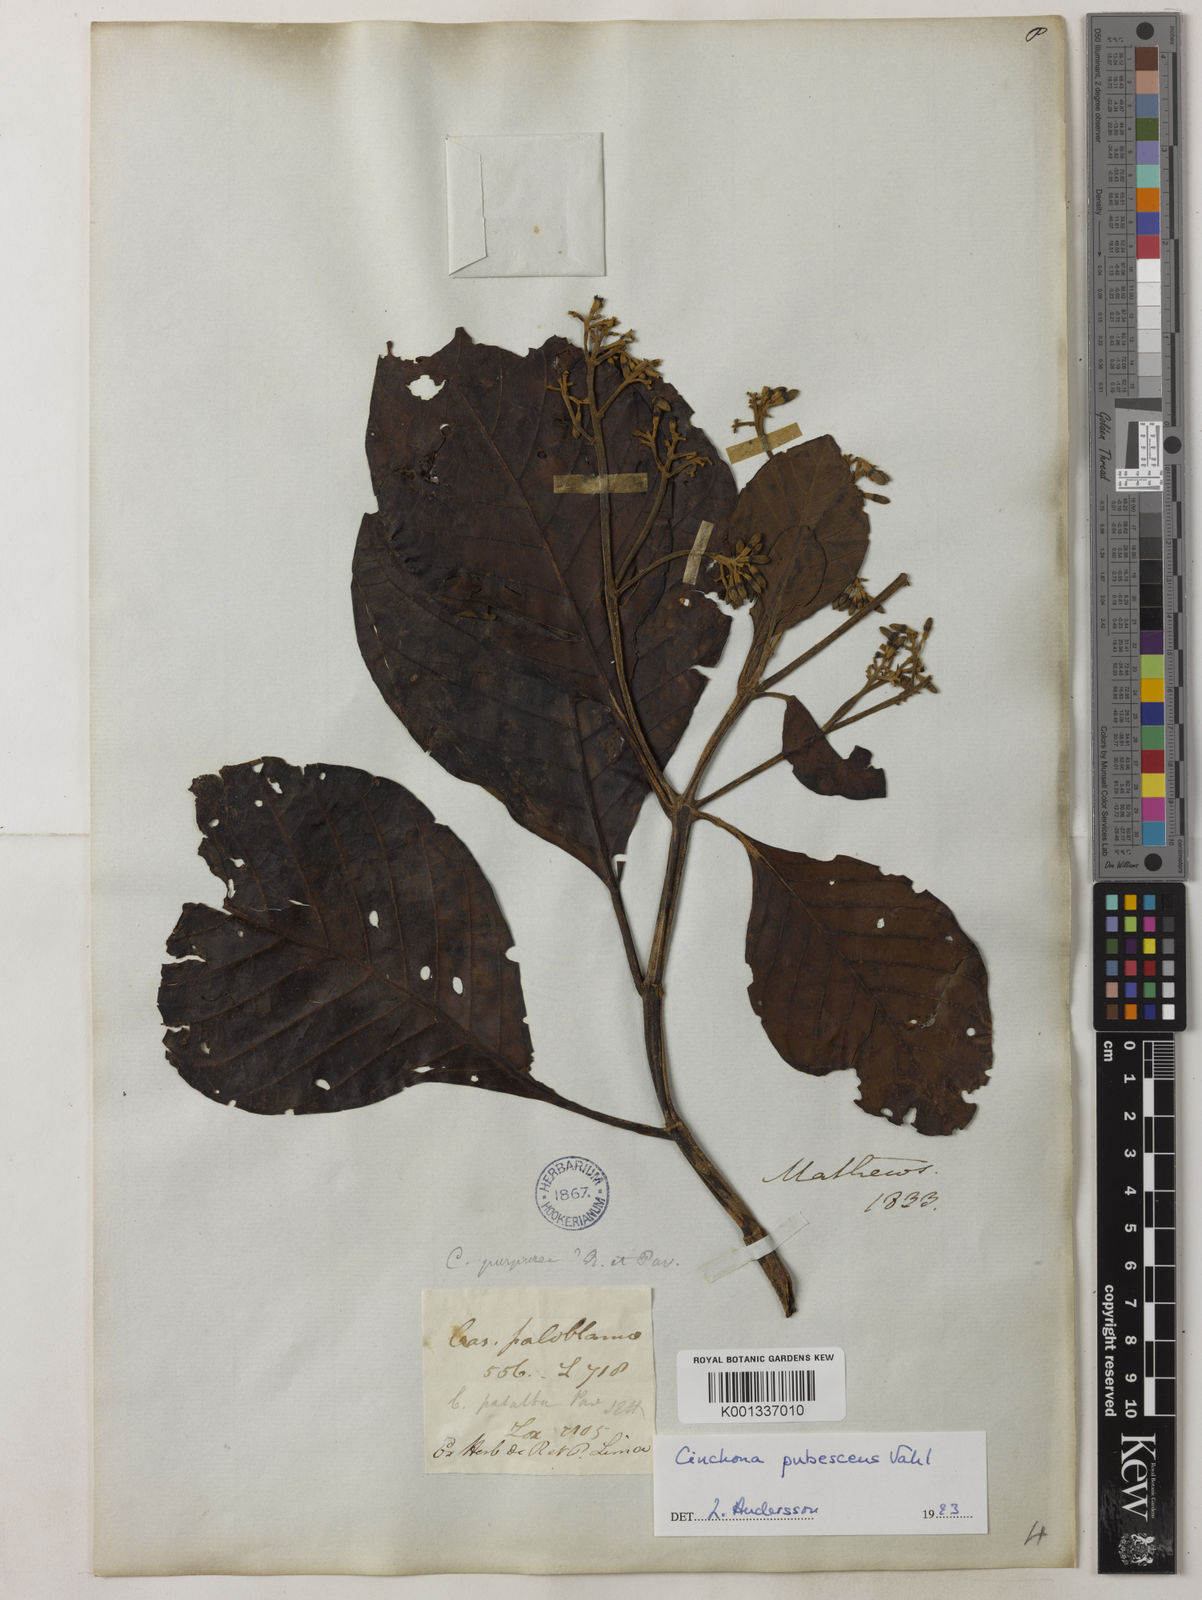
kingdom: Plantae
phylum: Tracheophyta
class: Magnoliopsida
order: Gentianales
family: Rubiaceae
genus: Cinchona
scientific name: Cinchona pubescens
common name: Quinine
